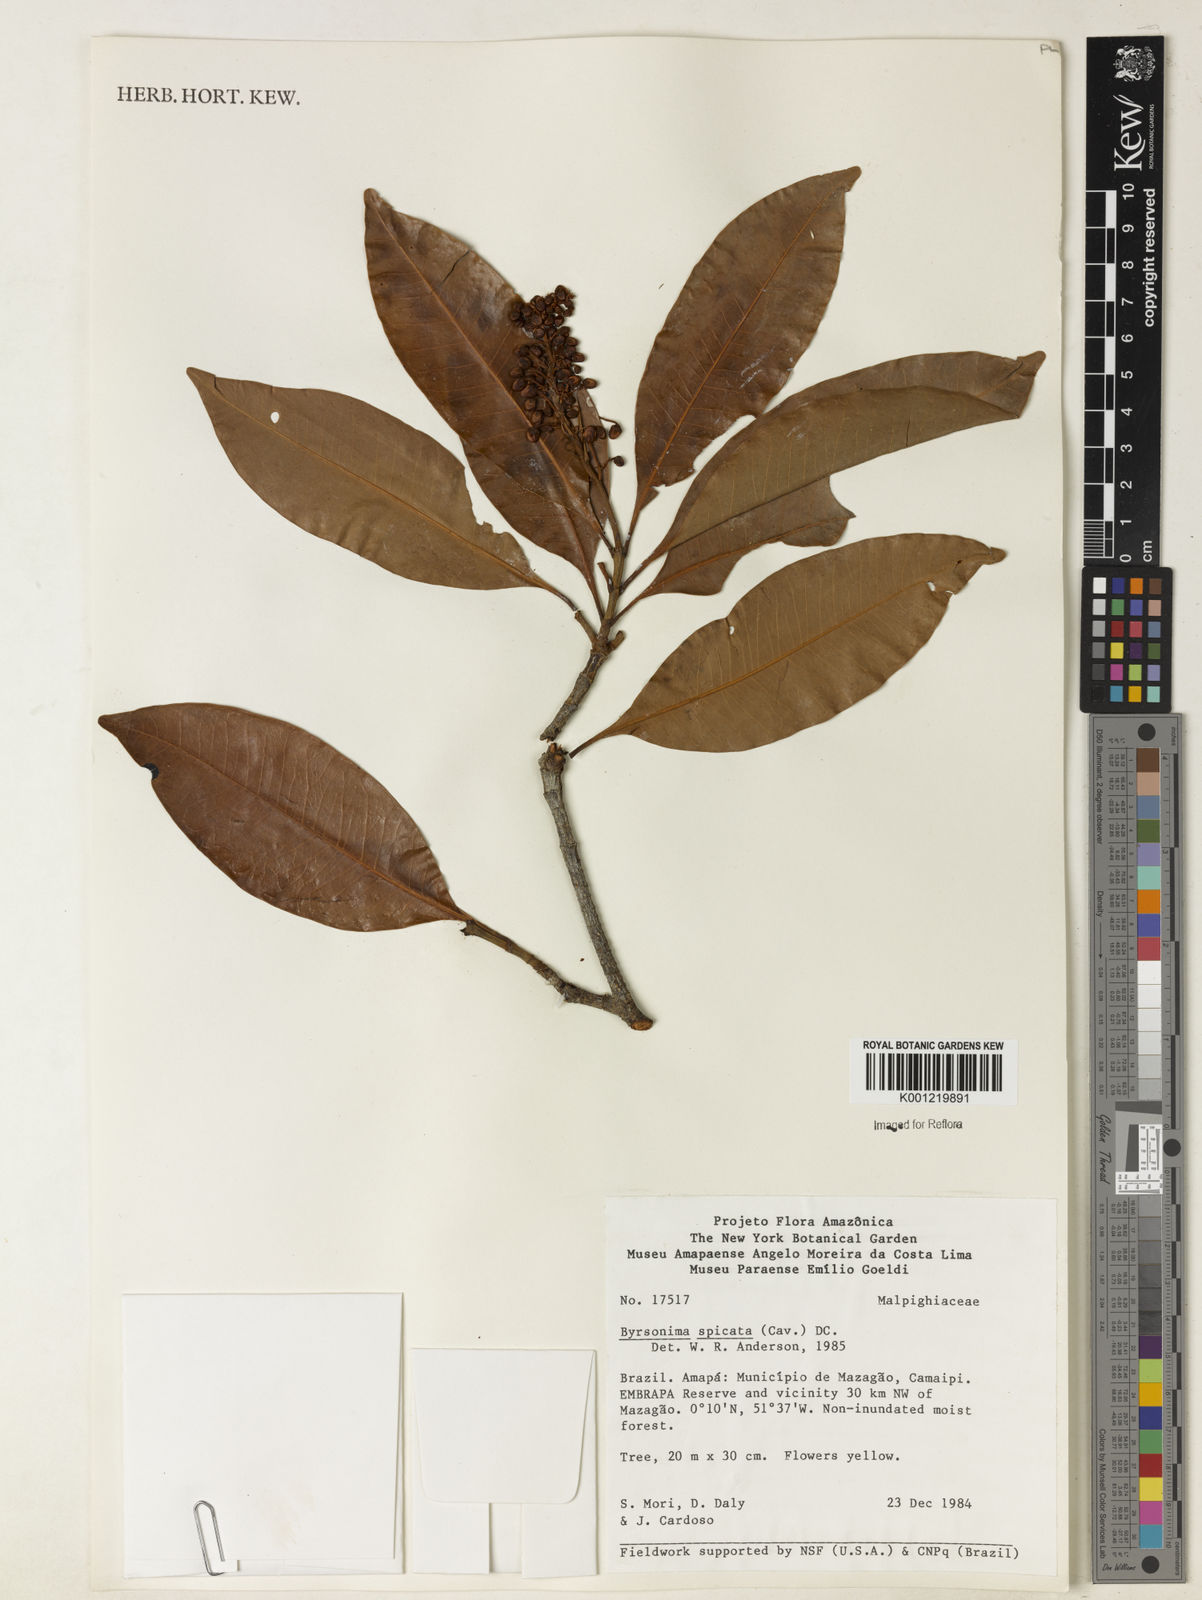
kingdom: Plantae
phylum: Tracheophyta
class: Magnoliopsida
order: Malpighiales
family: Malpighiaceae
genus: Byrsonima
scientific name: Byrsonima
